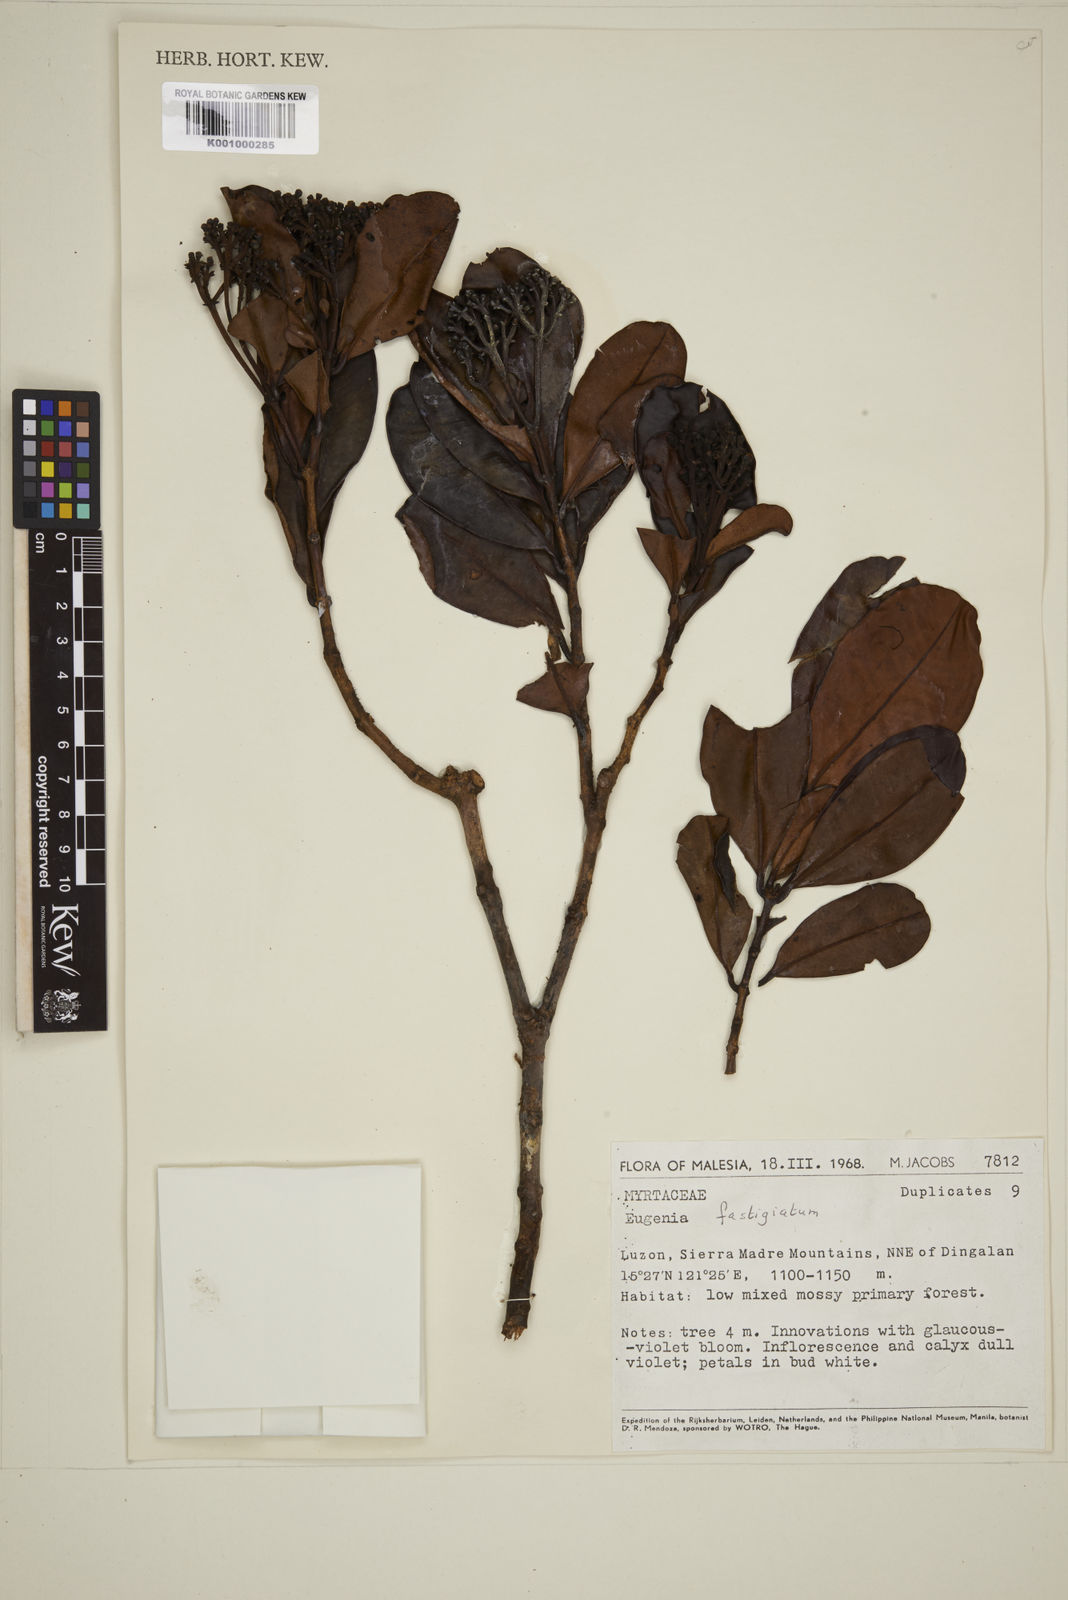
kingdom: Plantae
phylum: Tracheophyta
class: Magnoliopsida
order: Myrtales
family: Myrtaceae
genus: Syzygium
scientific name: Syzygium fastigiatum
